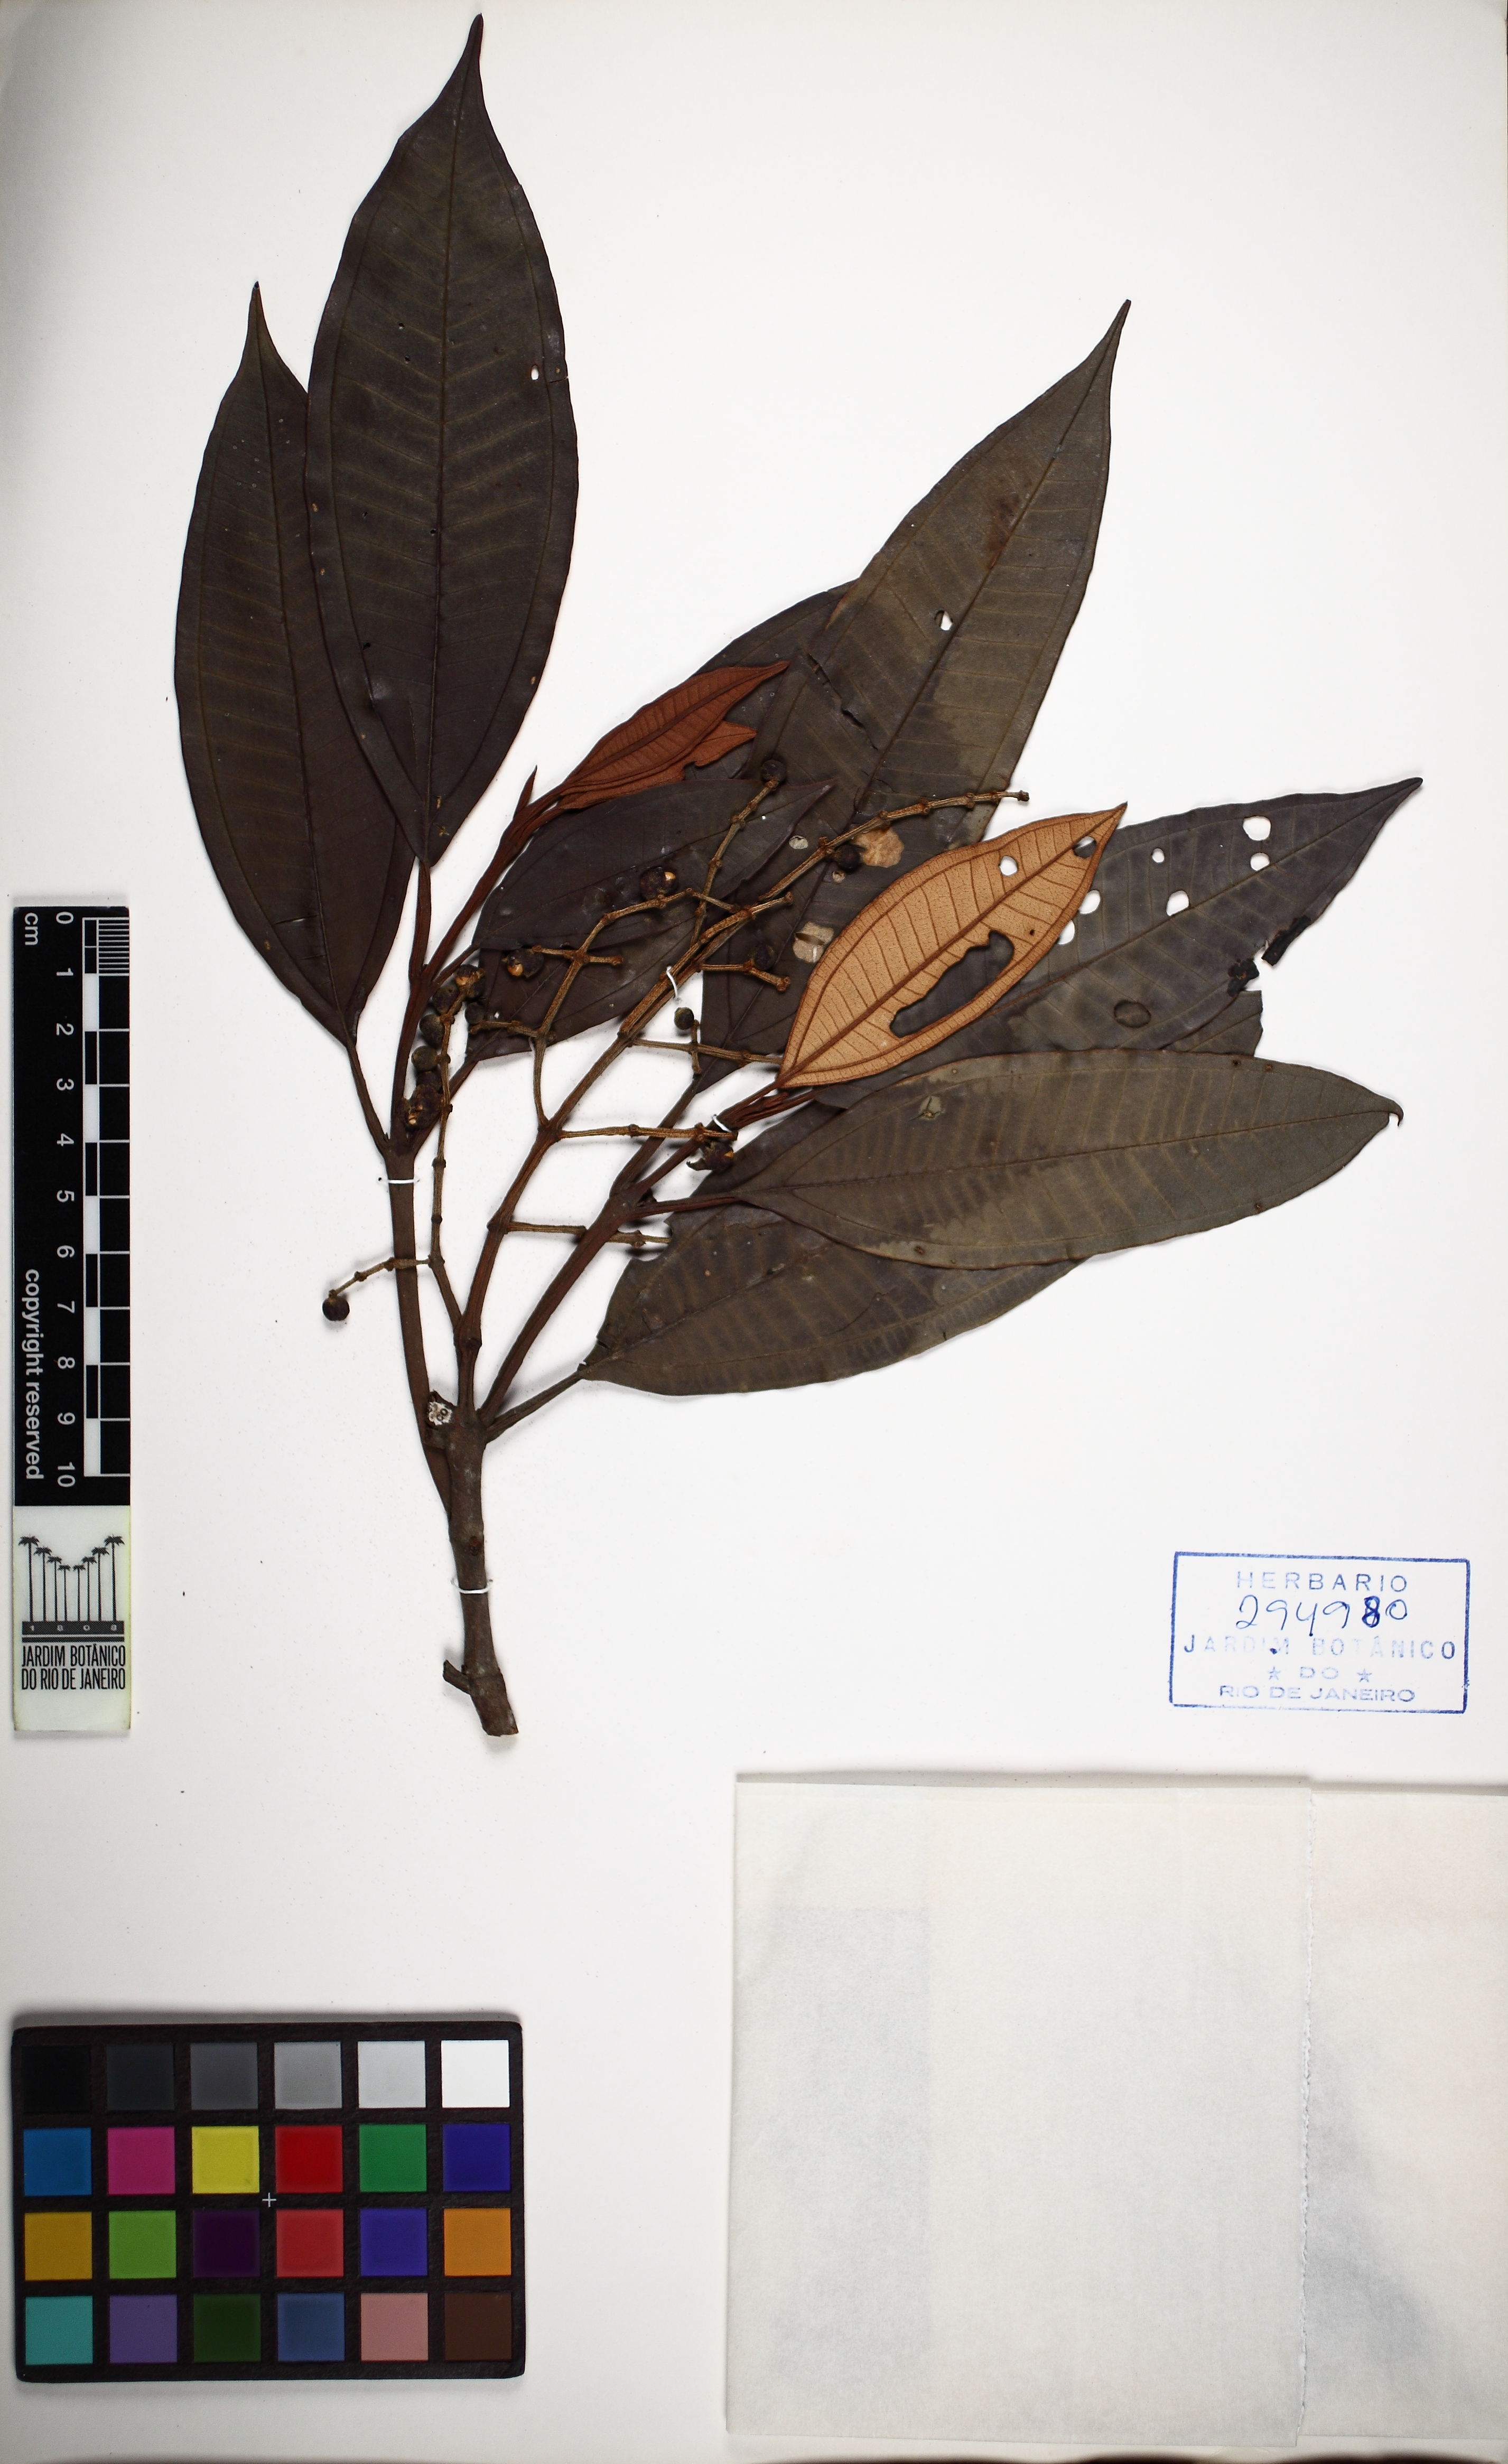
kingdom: Plantae
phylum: Tracheophyta
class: Magnoliopsida
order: Myrtales
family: Melastomataceae
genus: Miconia
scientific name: Miconia flammea
